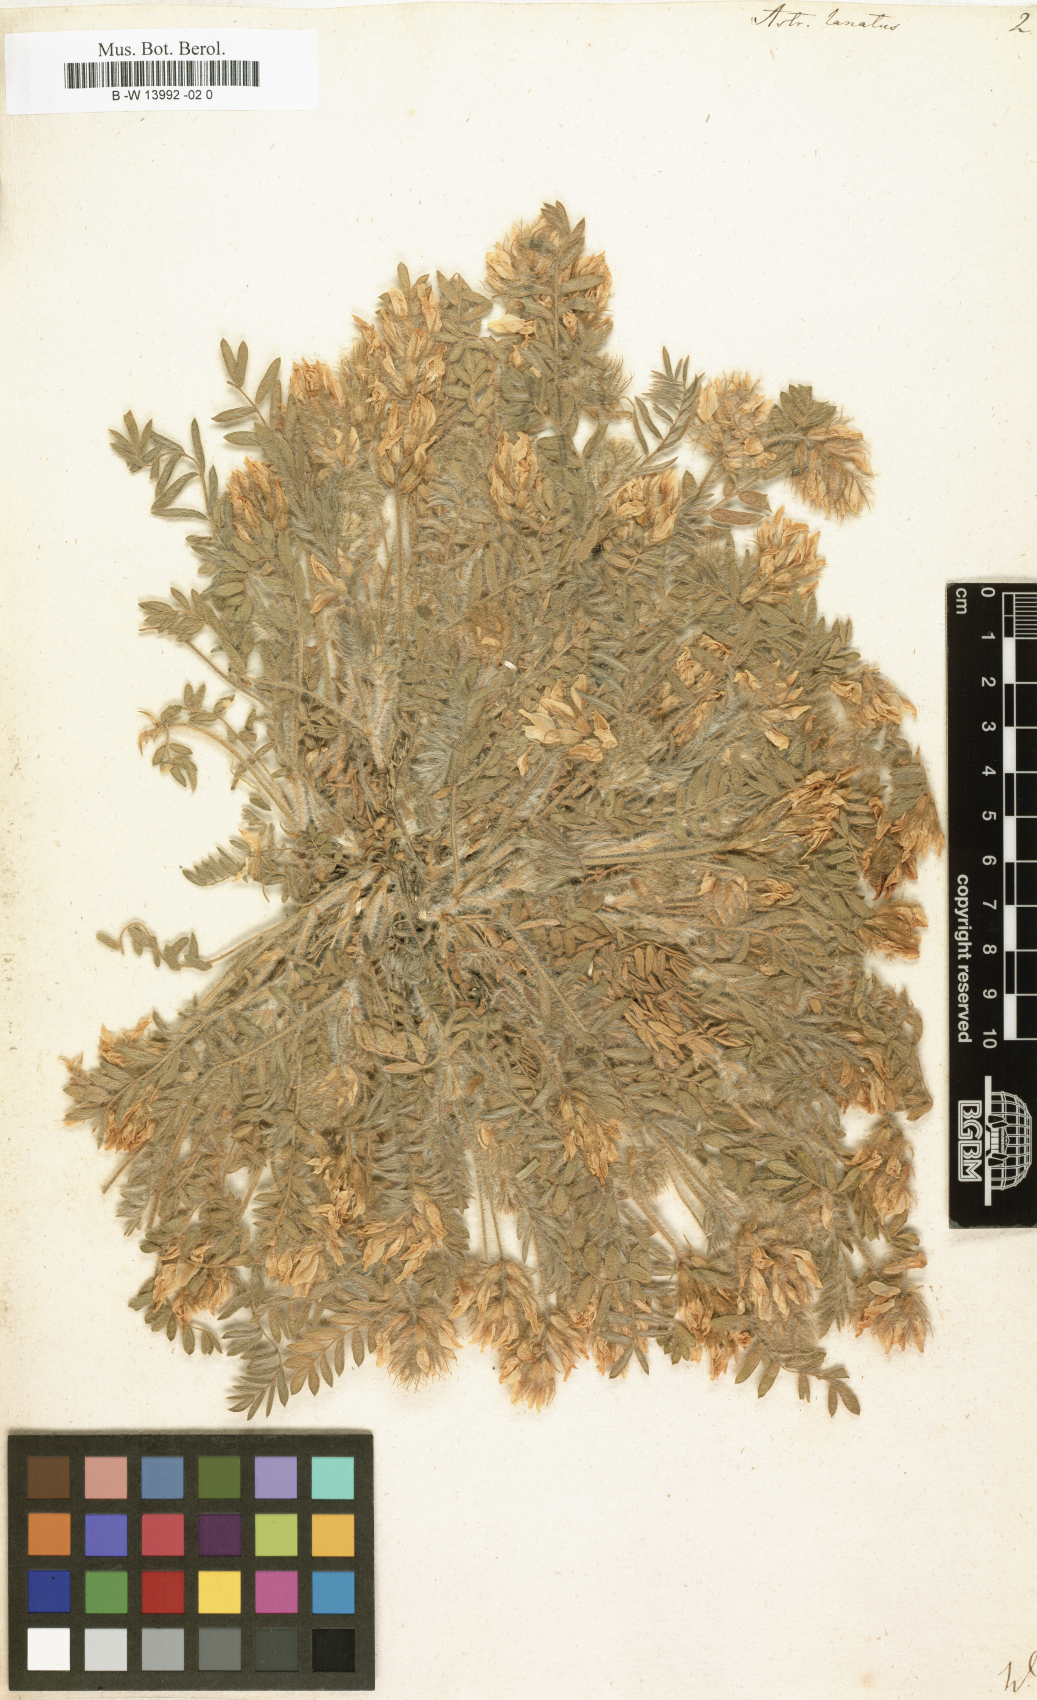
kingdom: Plantae
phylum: Tracheophyta
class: Magnoliopsida
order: Fabales
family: Fabaceae
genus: Oxytropis
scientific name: Oxytropis pallasii
